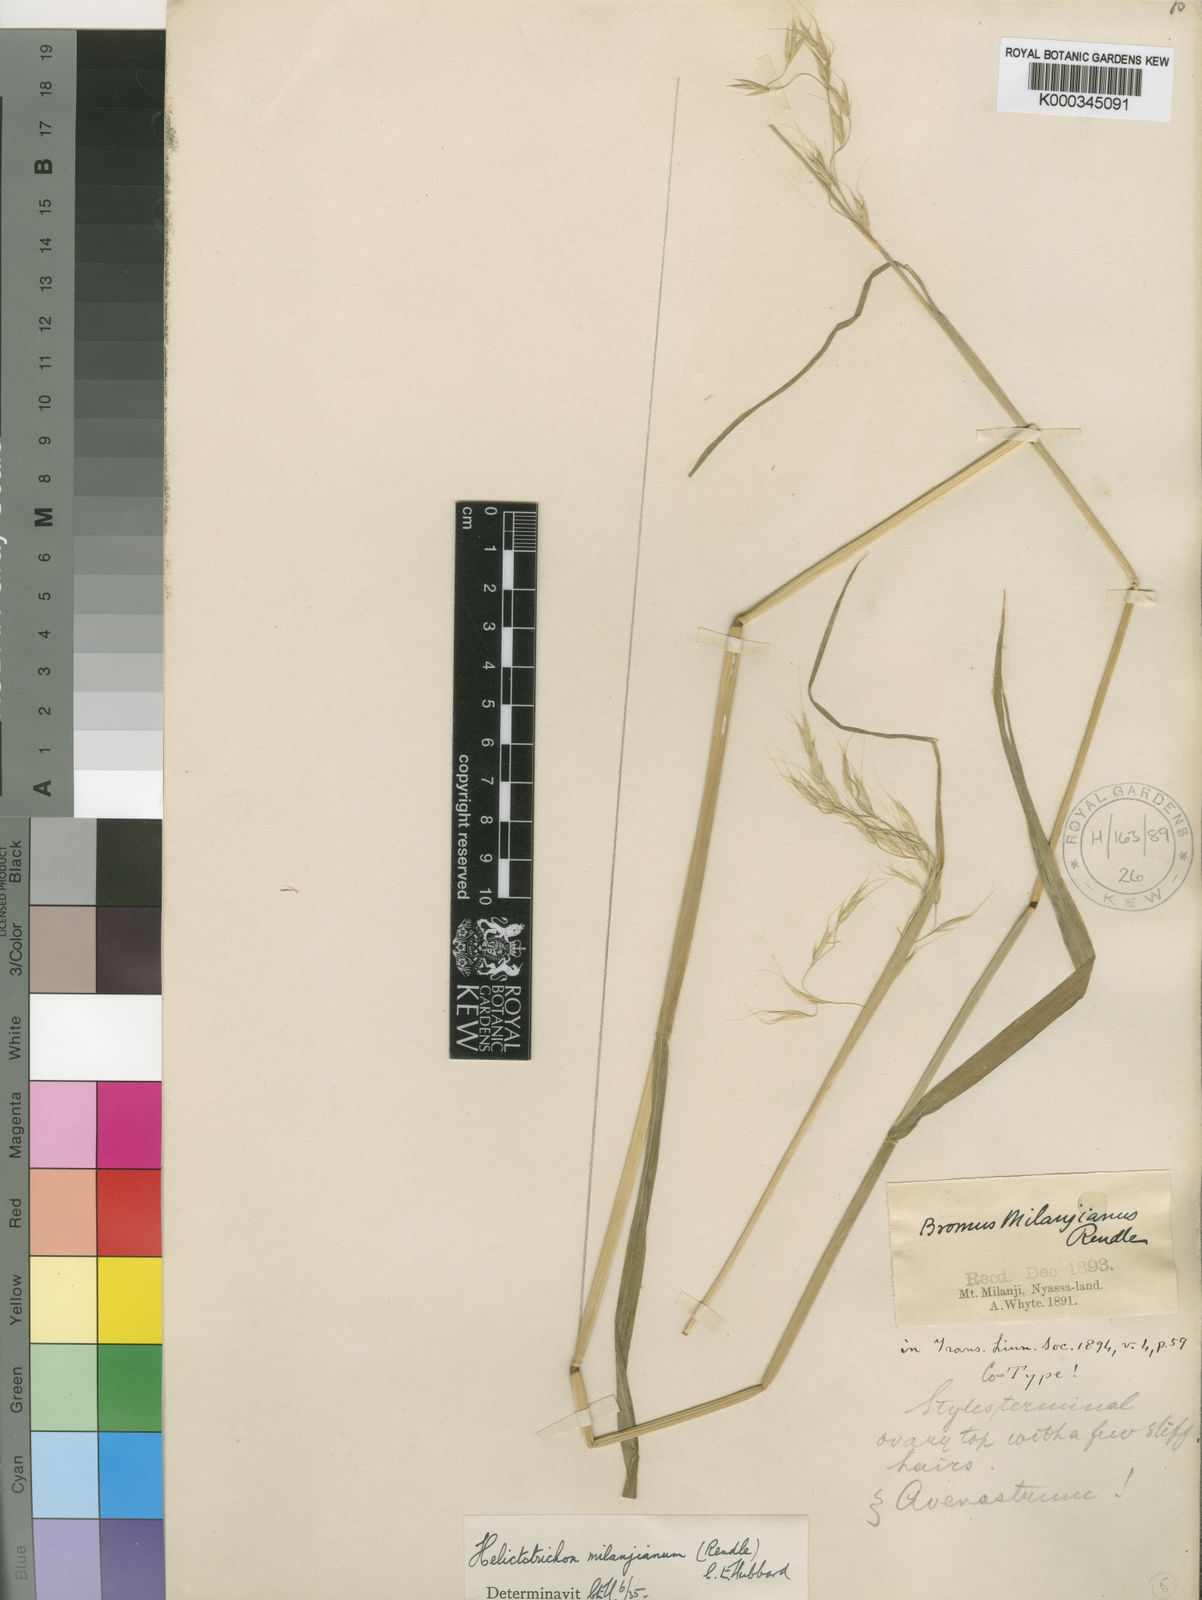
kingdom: Plantae
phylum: Tracheophyta
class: Liliopsida
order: Poales
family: Poaceae
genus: Trisetopsis
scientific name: Trisetopsis milanjiana
